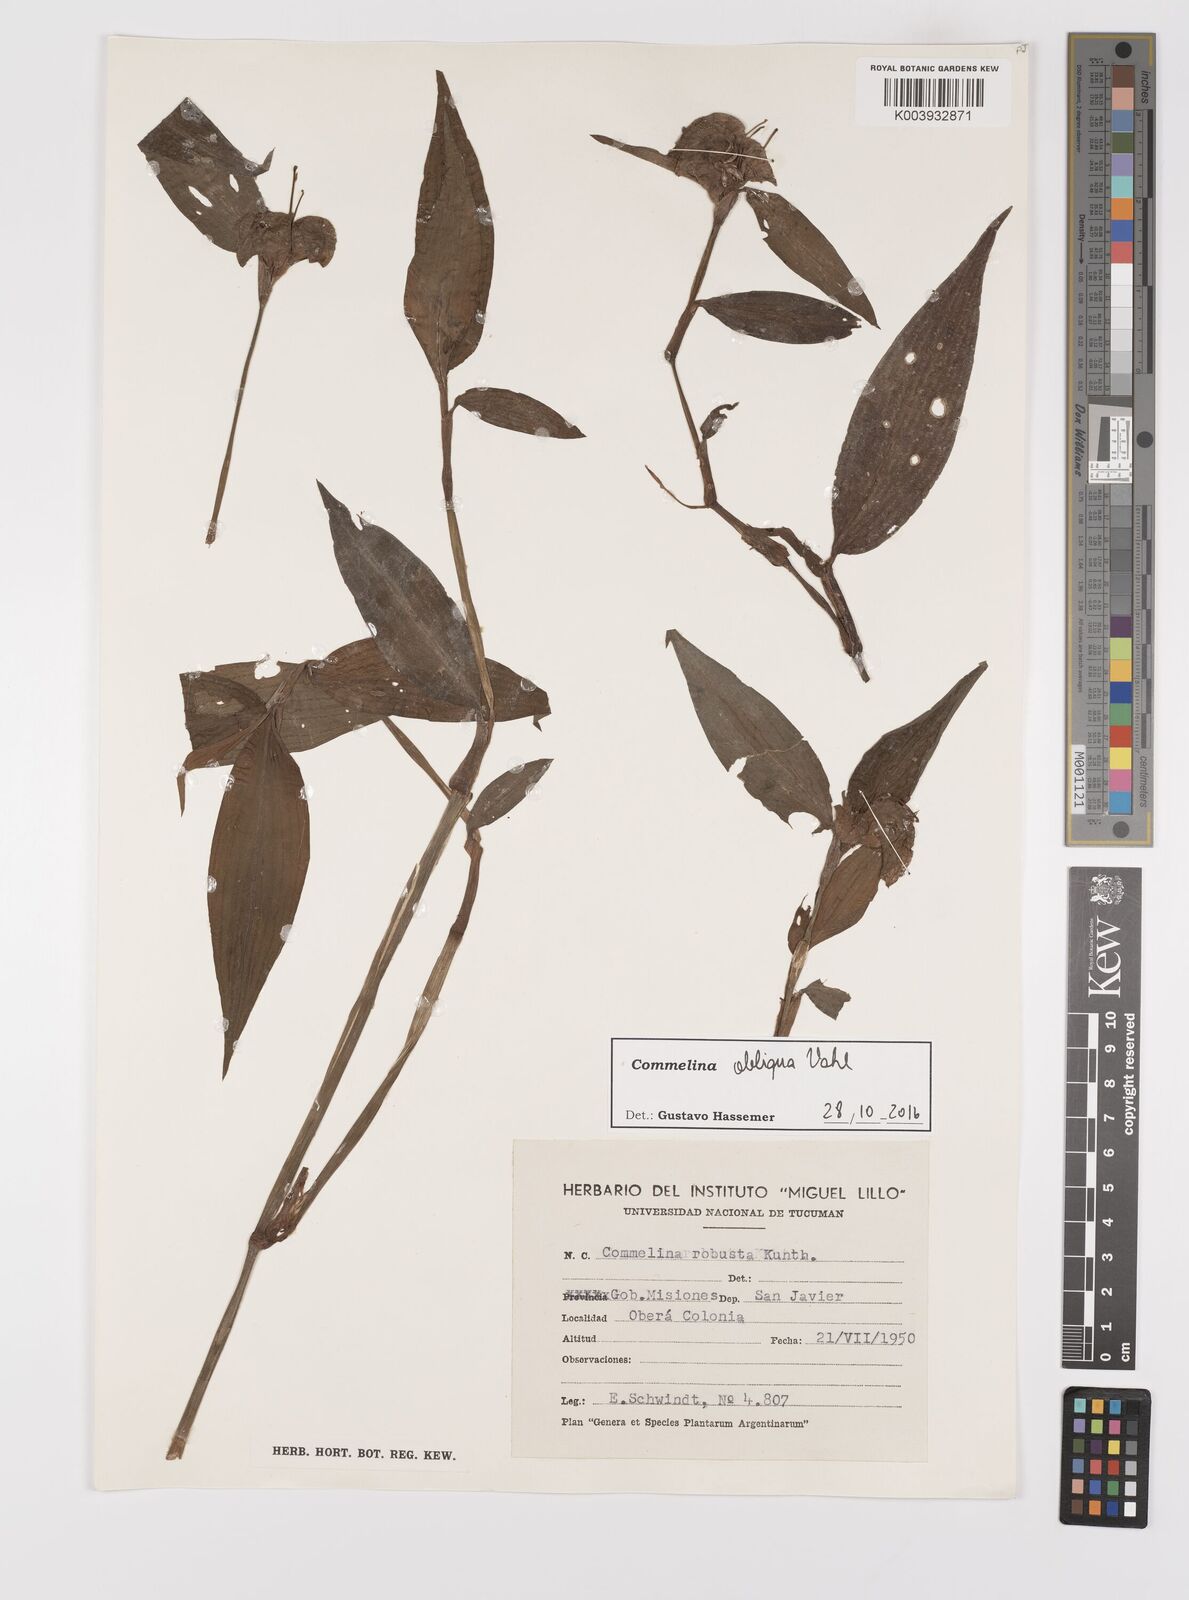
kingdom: Plantae
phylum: Tracheophyta
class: Liliopsida
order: Commelinales
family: Commelinaceae
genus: Commelina
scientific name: Commelina diffusa
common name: Climbing dayflower
